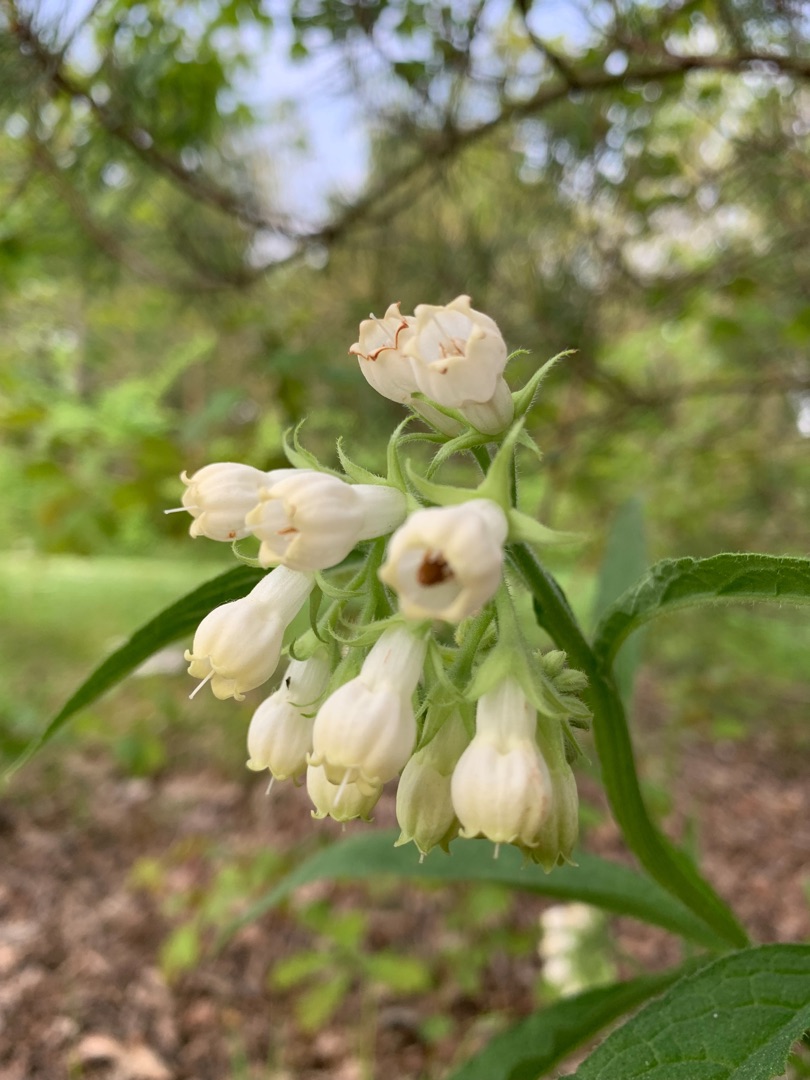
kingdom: Plantae
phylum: Tracheophyta
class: Magnoliopsida
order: Boraginales
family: Boraginaceae
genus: Symphytum
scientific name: Symphytum uplandicum
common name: Foder-kulsukker
